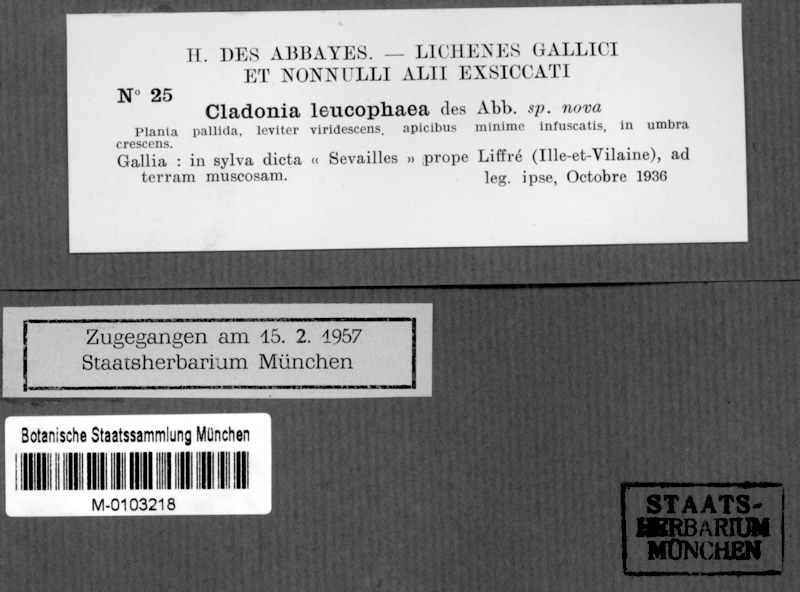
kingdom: Fungi
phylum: Ascomycota
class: Lecanoromycetes
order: Lecanorales
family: Cladoniaceae
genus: Cladonia
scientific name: Cladonia ciliata
